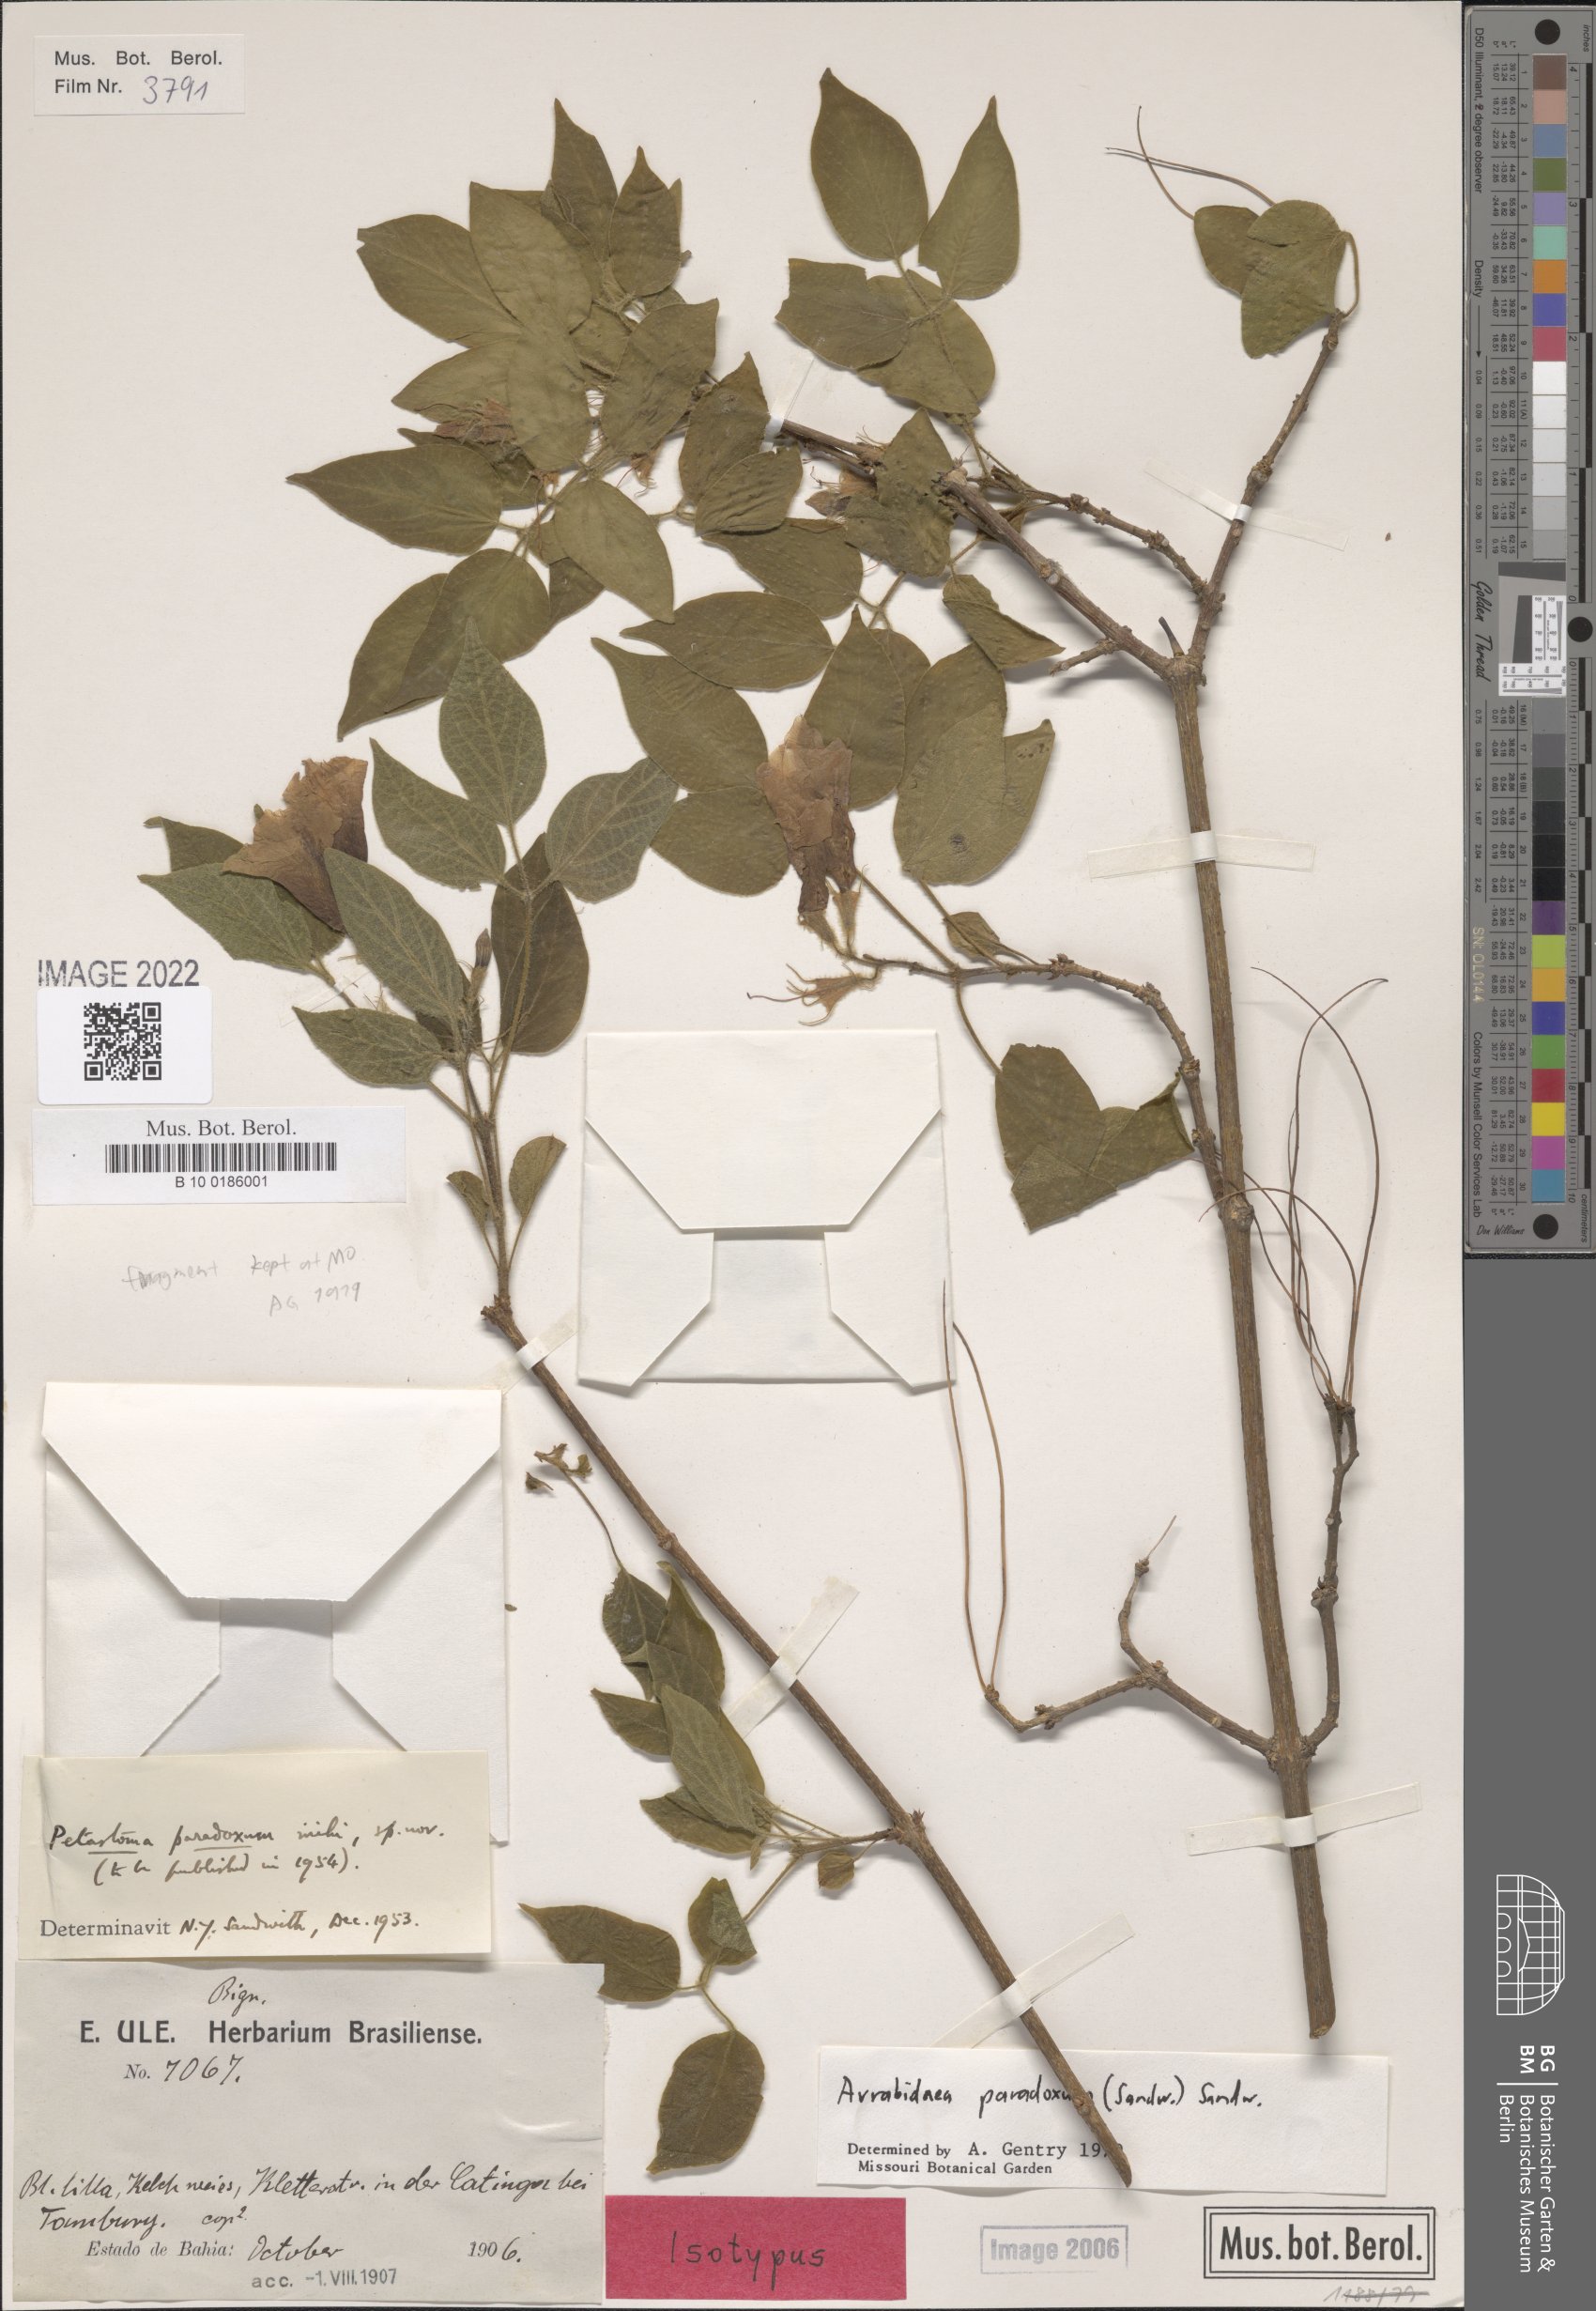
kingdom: Plantae
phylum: Tracheophyta
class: Magnoliopsida
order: Lamiales
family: Bignoniaceae
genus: Tanaecium
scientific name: Tanaecium paradoxum
